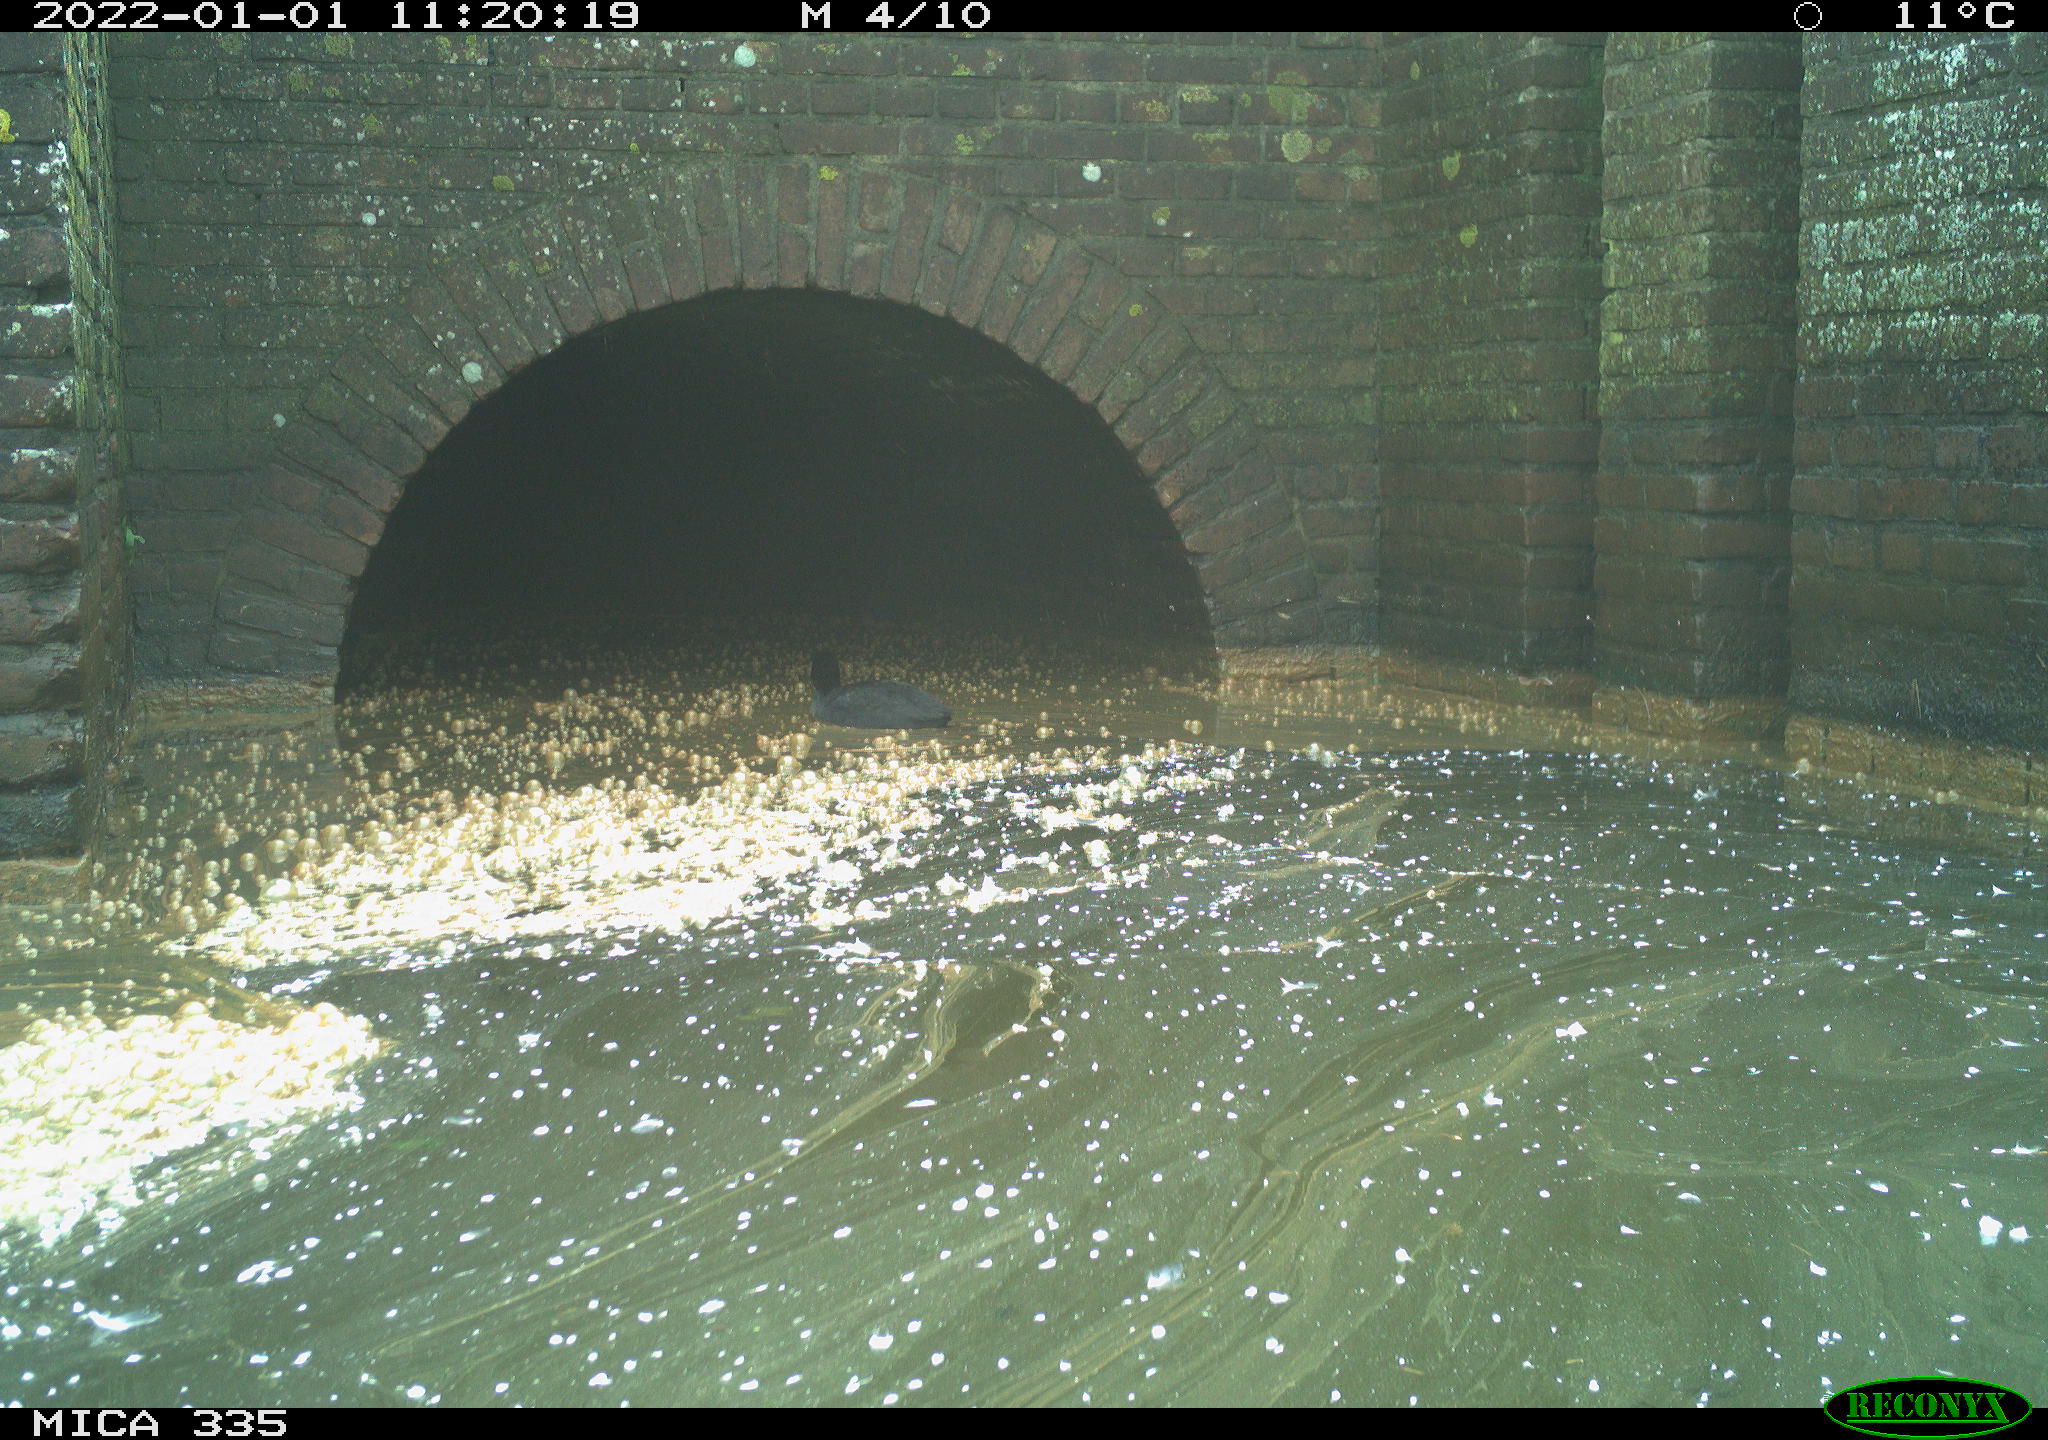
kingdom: Animalia
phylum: Chordata
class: Aves
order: Gruiformes
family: Rallidae
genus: Fulica
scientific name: Fulica atra
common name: Eurasian coot
